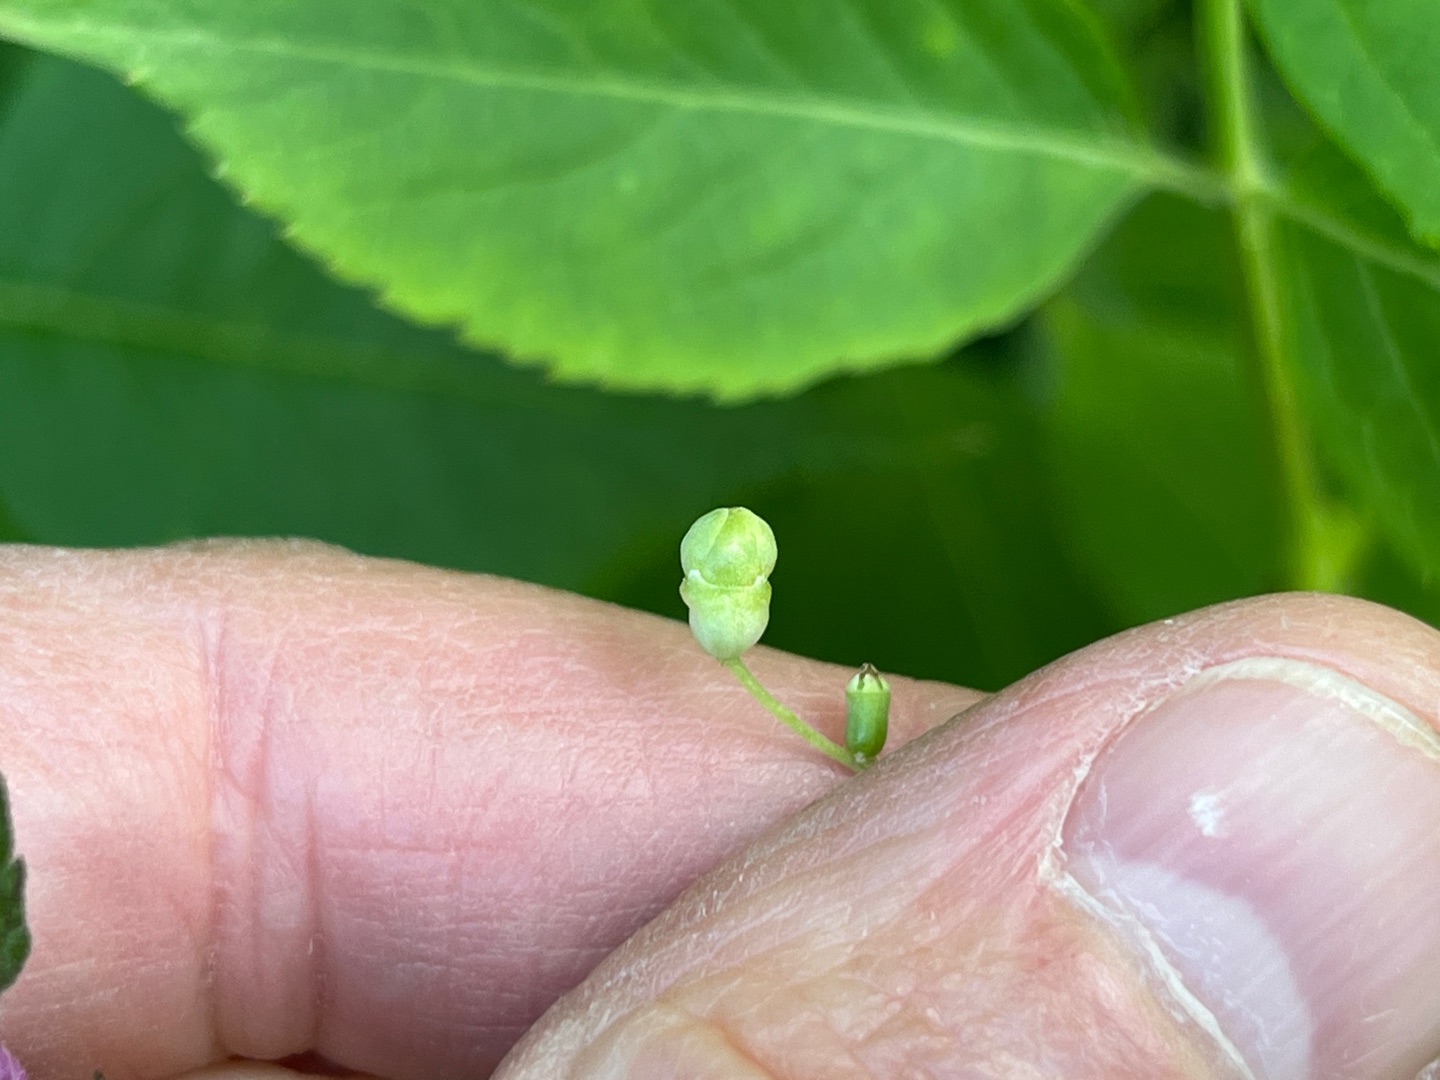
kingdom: Animalia
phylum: Arthropoda
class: Insecta
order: Diptera
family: Cecidomyiidae
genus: Placochela
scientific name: Placochela nigripes
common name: Hyldeblomstgalmyg
